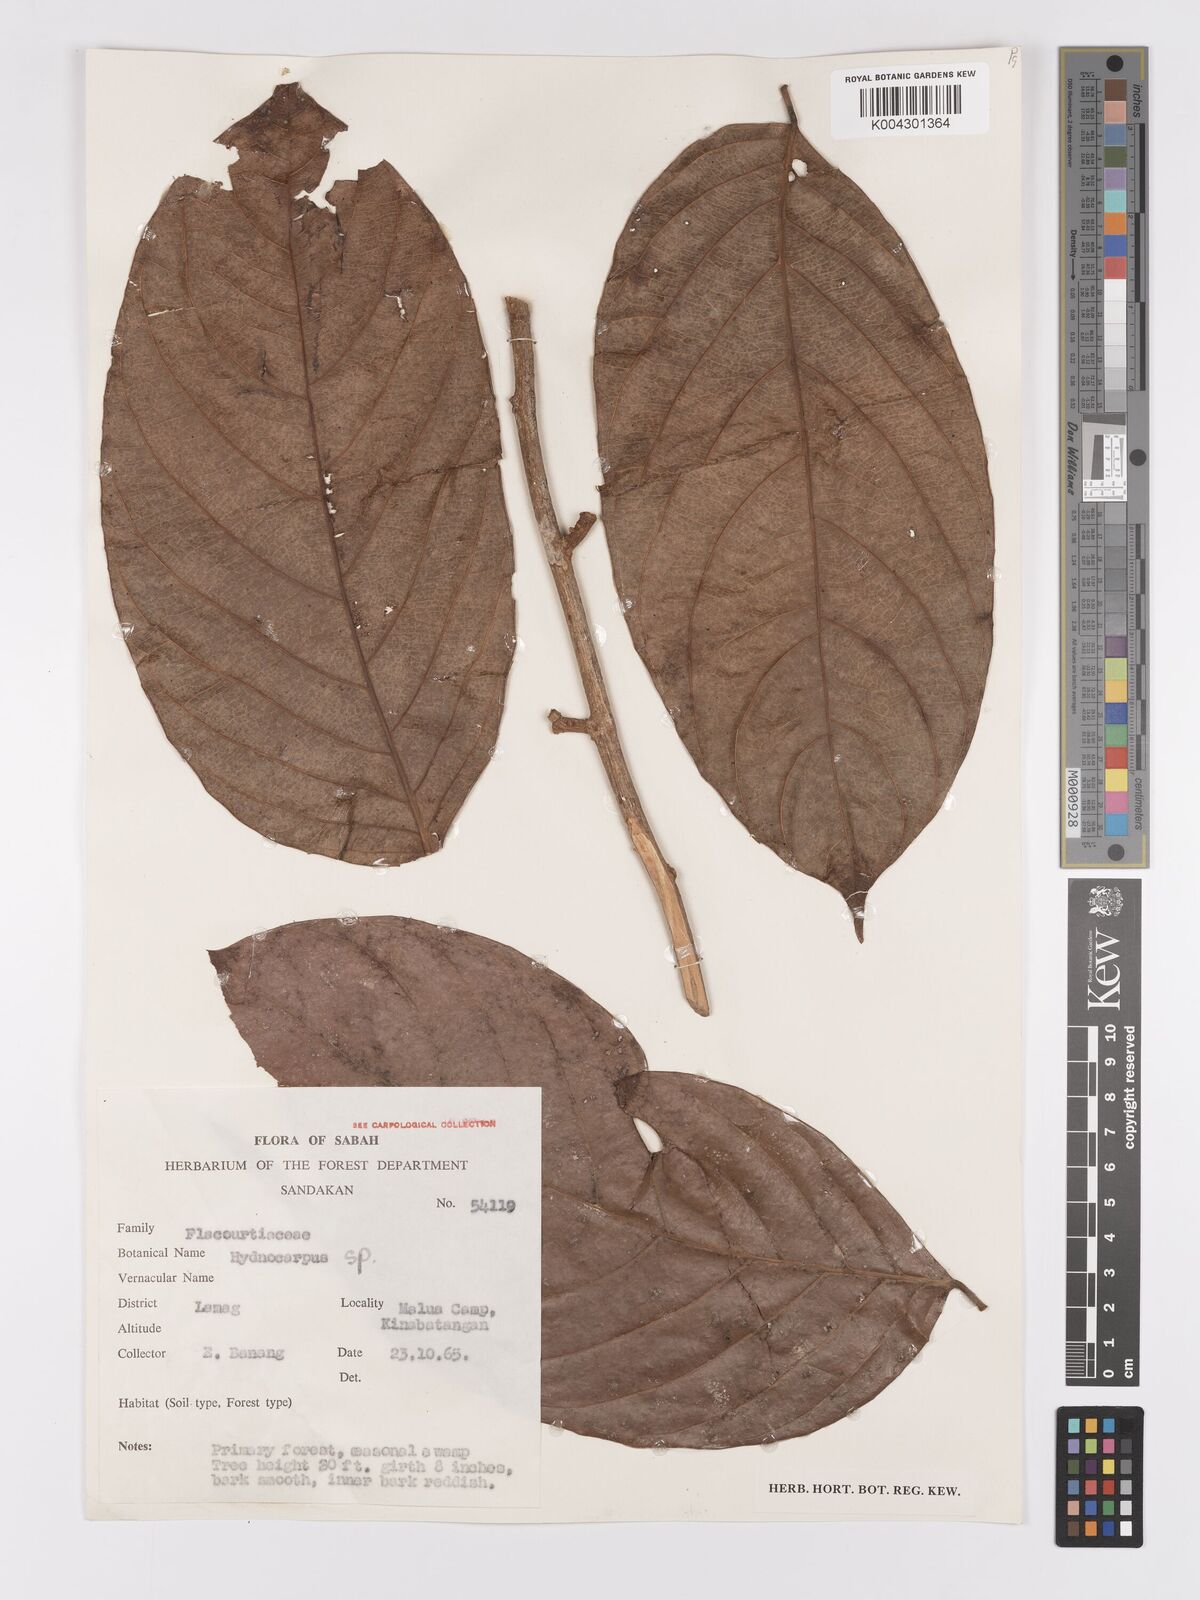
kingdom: Plantae
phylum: Tracheophyta
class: Magnoliopsida
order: Malpighiales
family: Achariaceae
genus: Hydnocarpus
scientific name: Hydnocarpus
